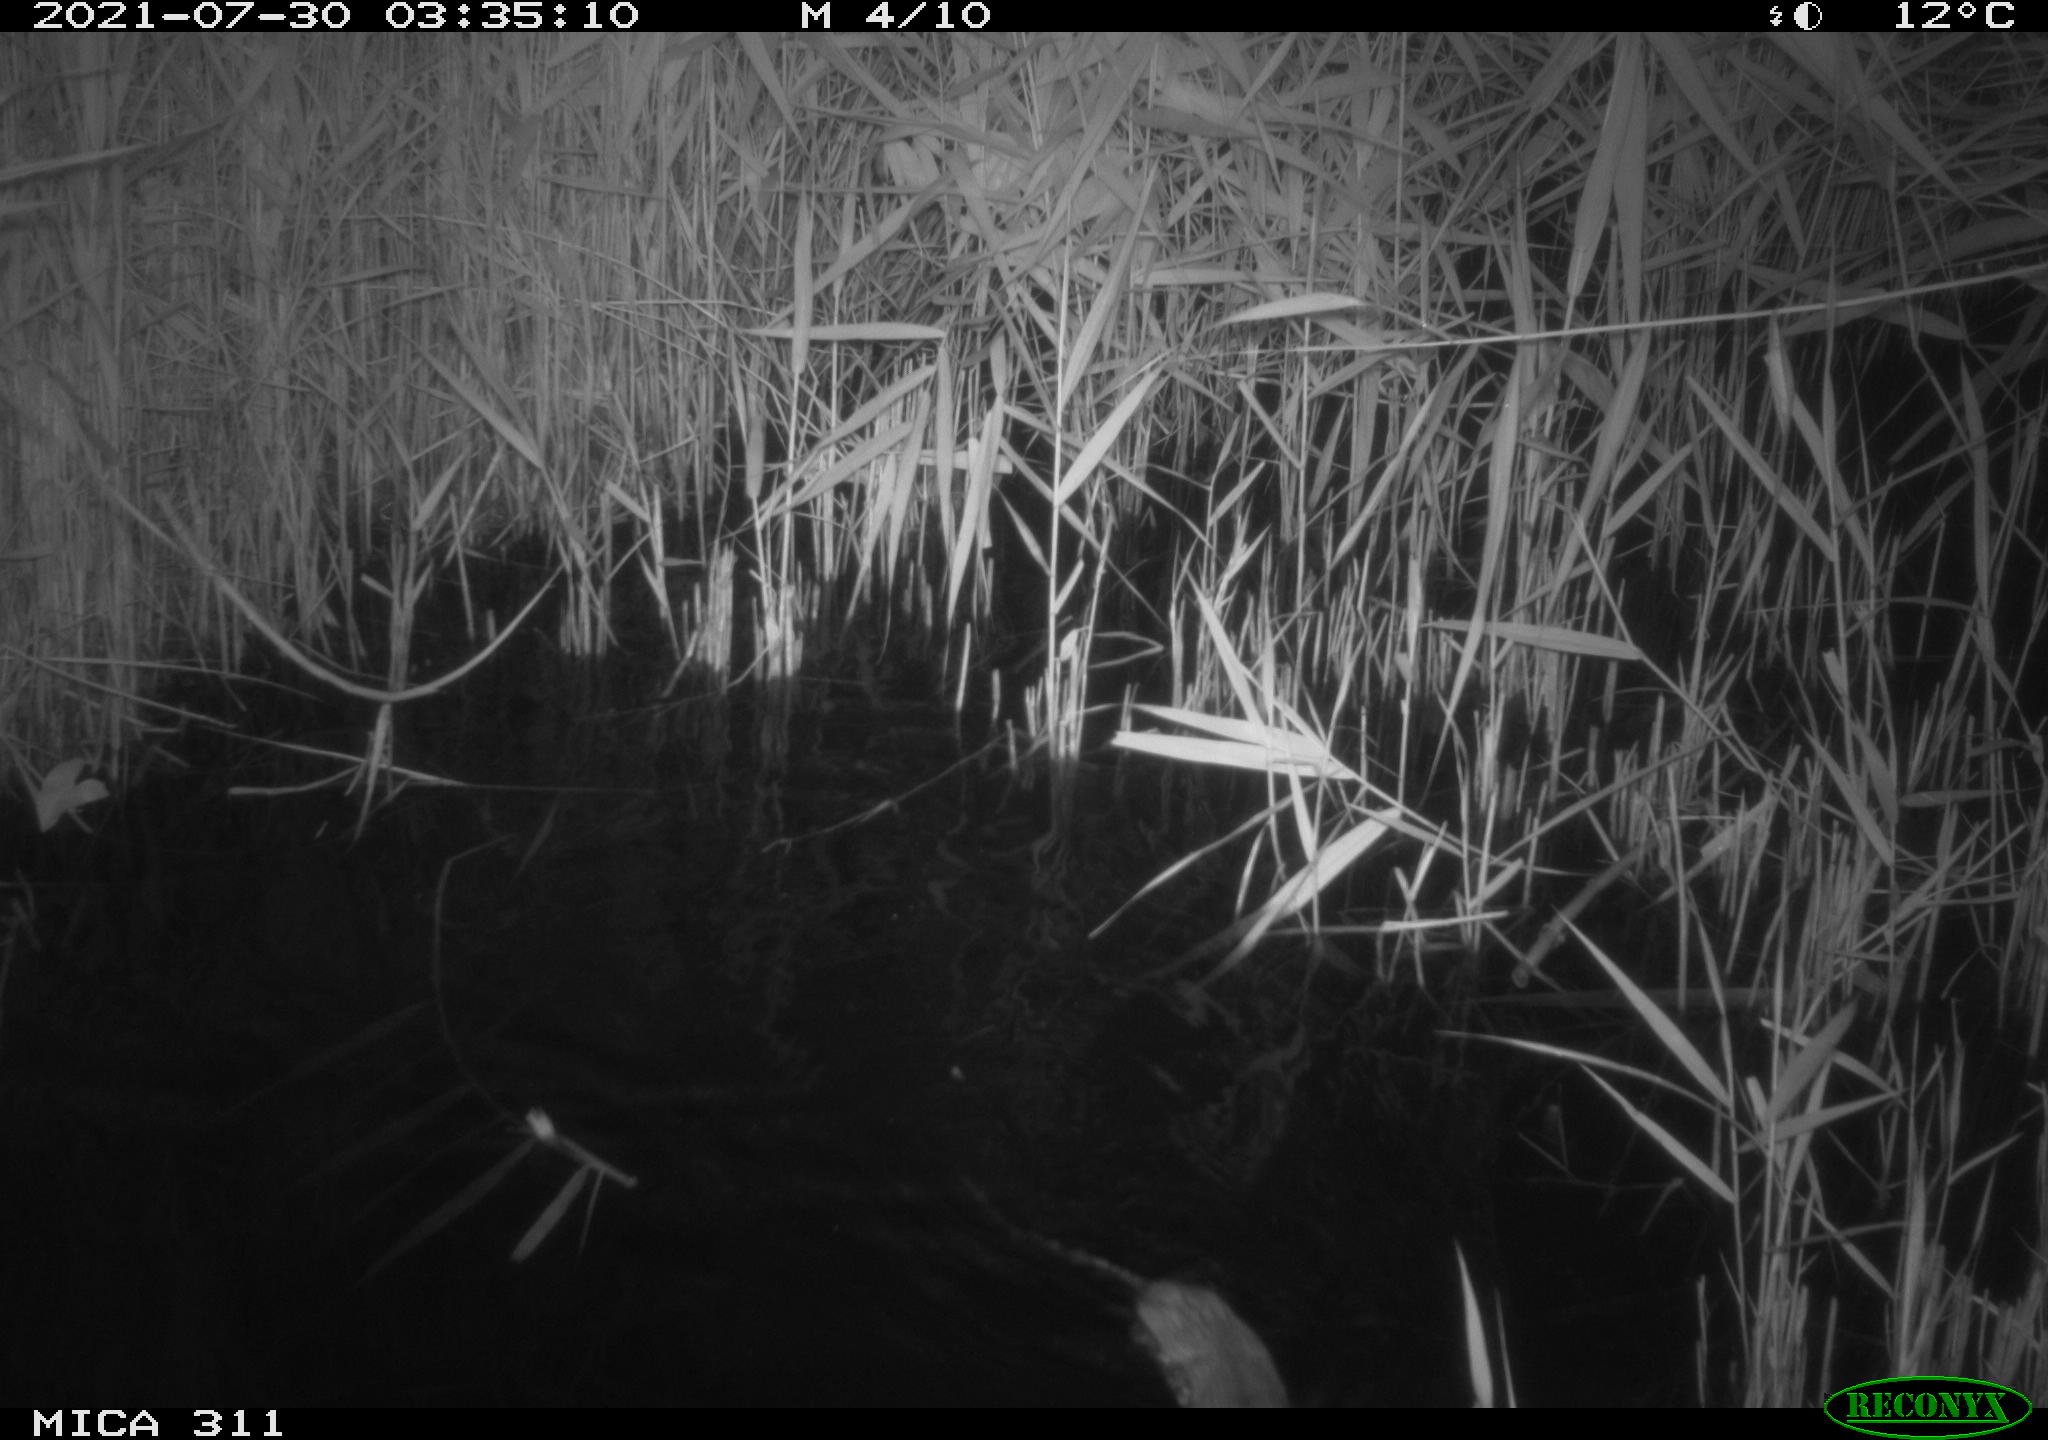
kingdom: Animalia
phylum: Chordata
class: Mammalia
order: Rodentia
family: Muridae
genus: Rattus
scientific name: Rattus norvegicus
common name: Brown rat
